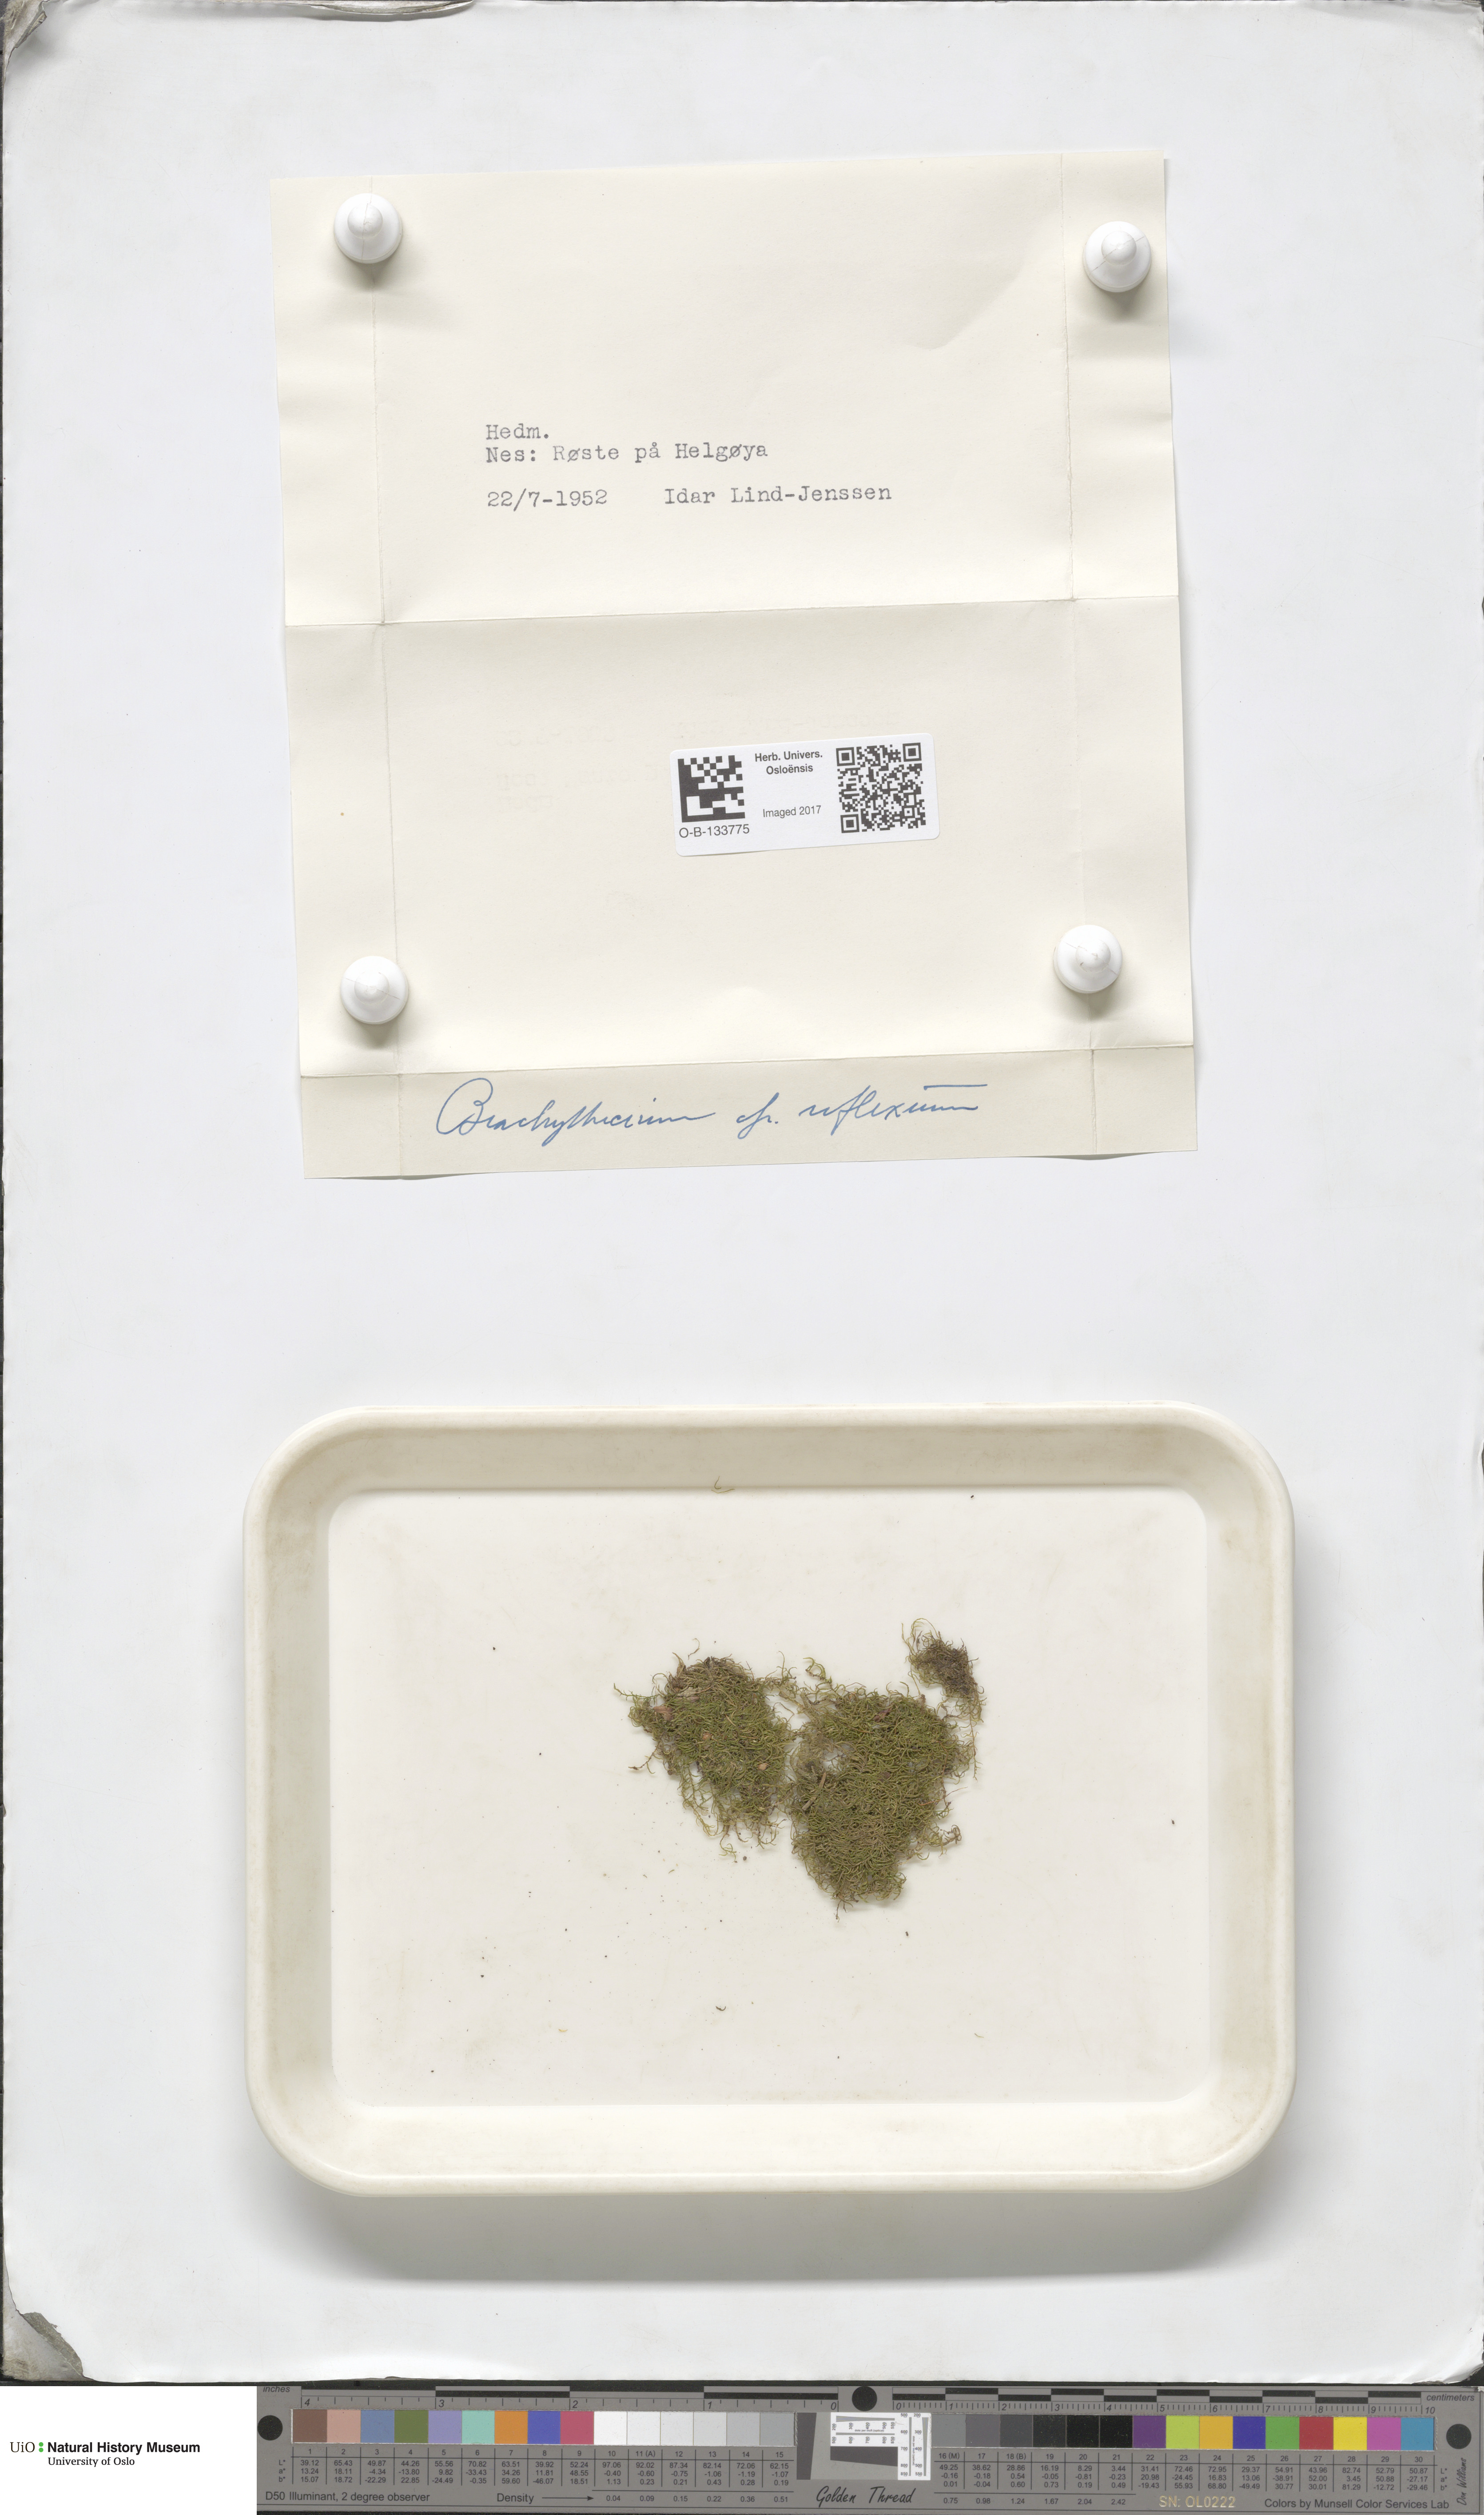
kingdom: Plantae
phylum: Bryophyta
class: Bryopsida
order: Hypnales
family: Brachytheciaceae
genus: Sciuro-hypnum
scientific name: Sciuro-hypnum reflexum
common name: Reflexed feather-moss
